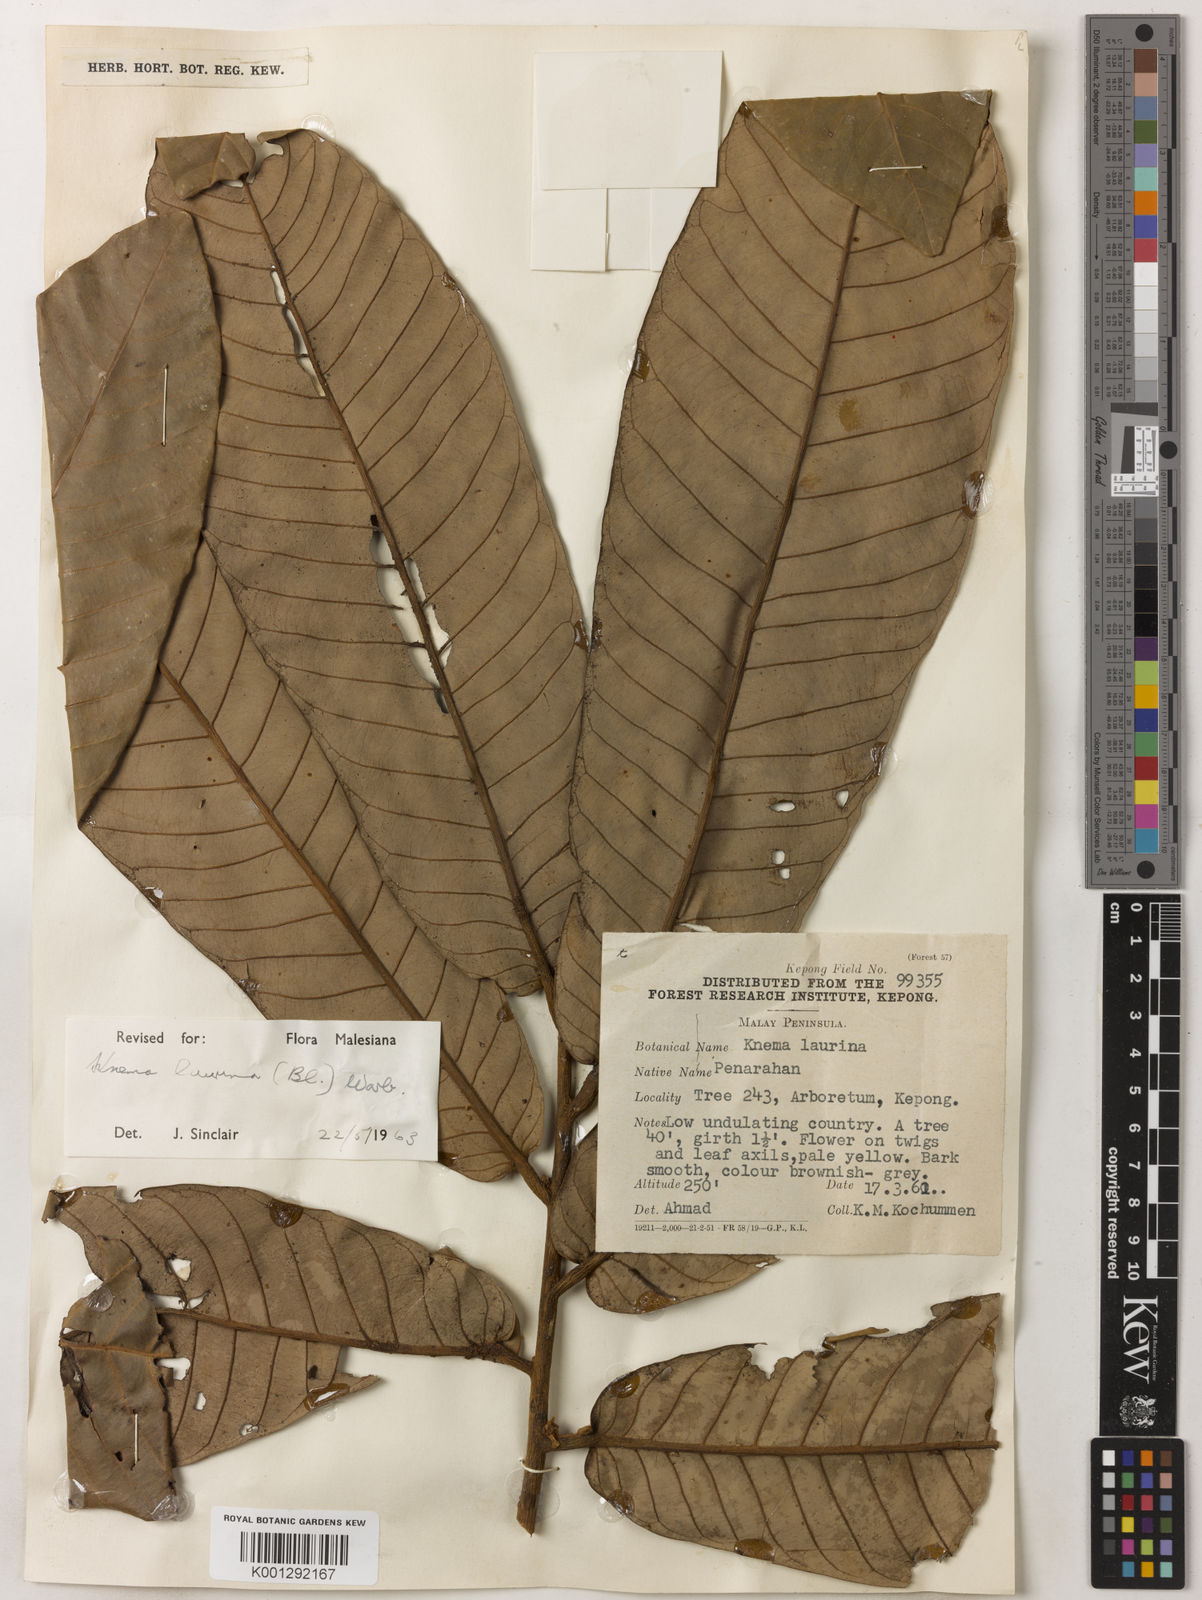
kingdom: Plantae
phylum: Tracheophyta
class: Magnoliopsida
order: Magnoliales
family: Myristicaceae
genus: Knema
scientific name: Knema laurina
